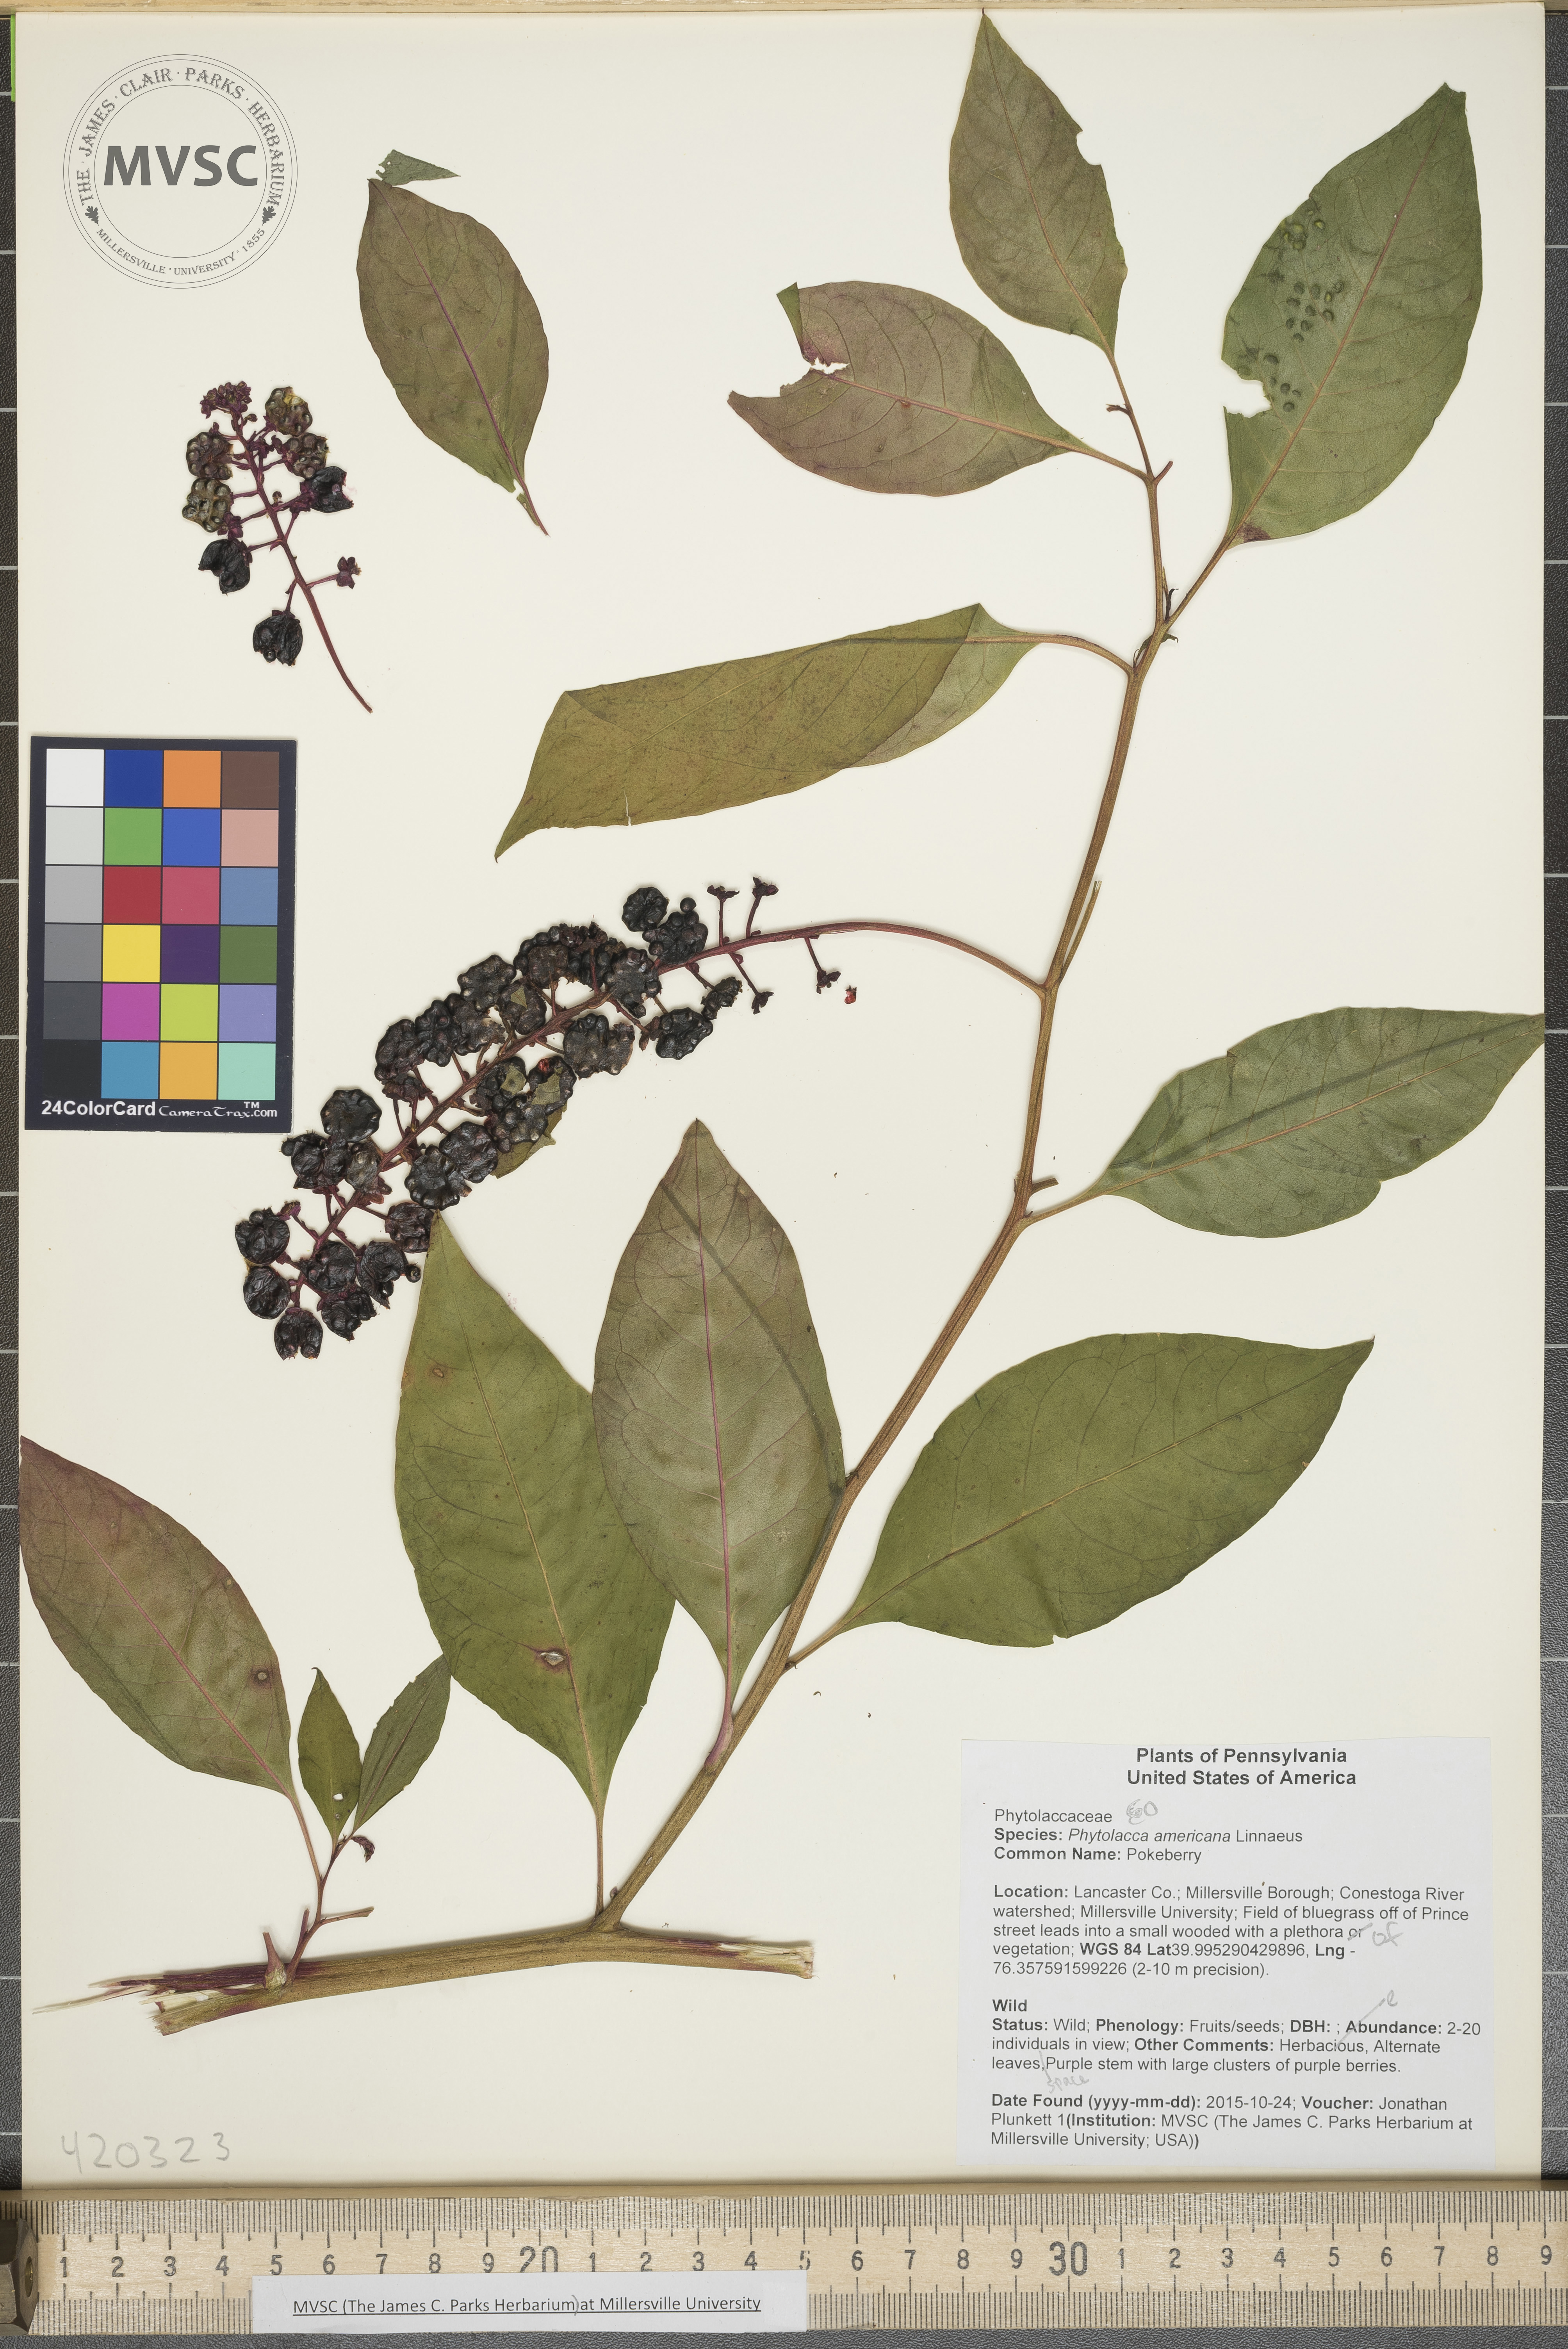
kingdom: Plantae
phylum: Tracheophyta
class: Magnoliopsida
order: Caryophyllales
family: Phytolaccaceae
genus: Phytolacca
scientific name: Phytolacca americana
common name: Pokeberry
